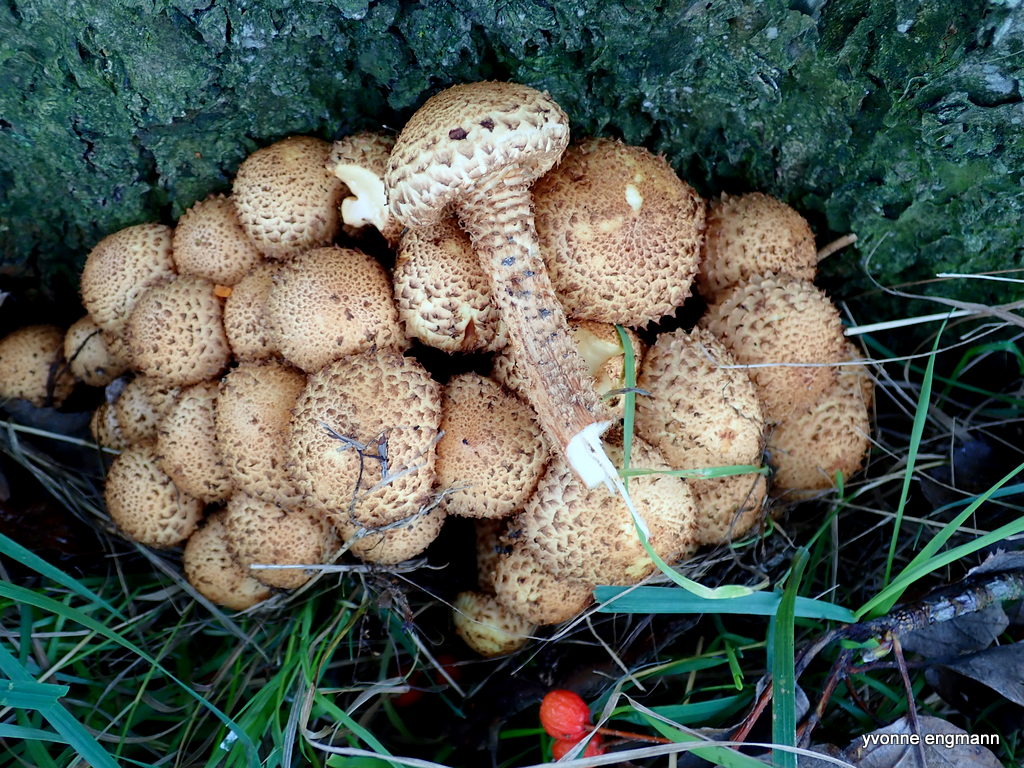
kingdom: Fungi
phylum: Basidiomycota
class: Agaricomycetes
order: Agaricales
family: Strophariaceae
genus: Pholiota
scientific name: Pholiota squarrosa
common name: krumskællet skælhat
